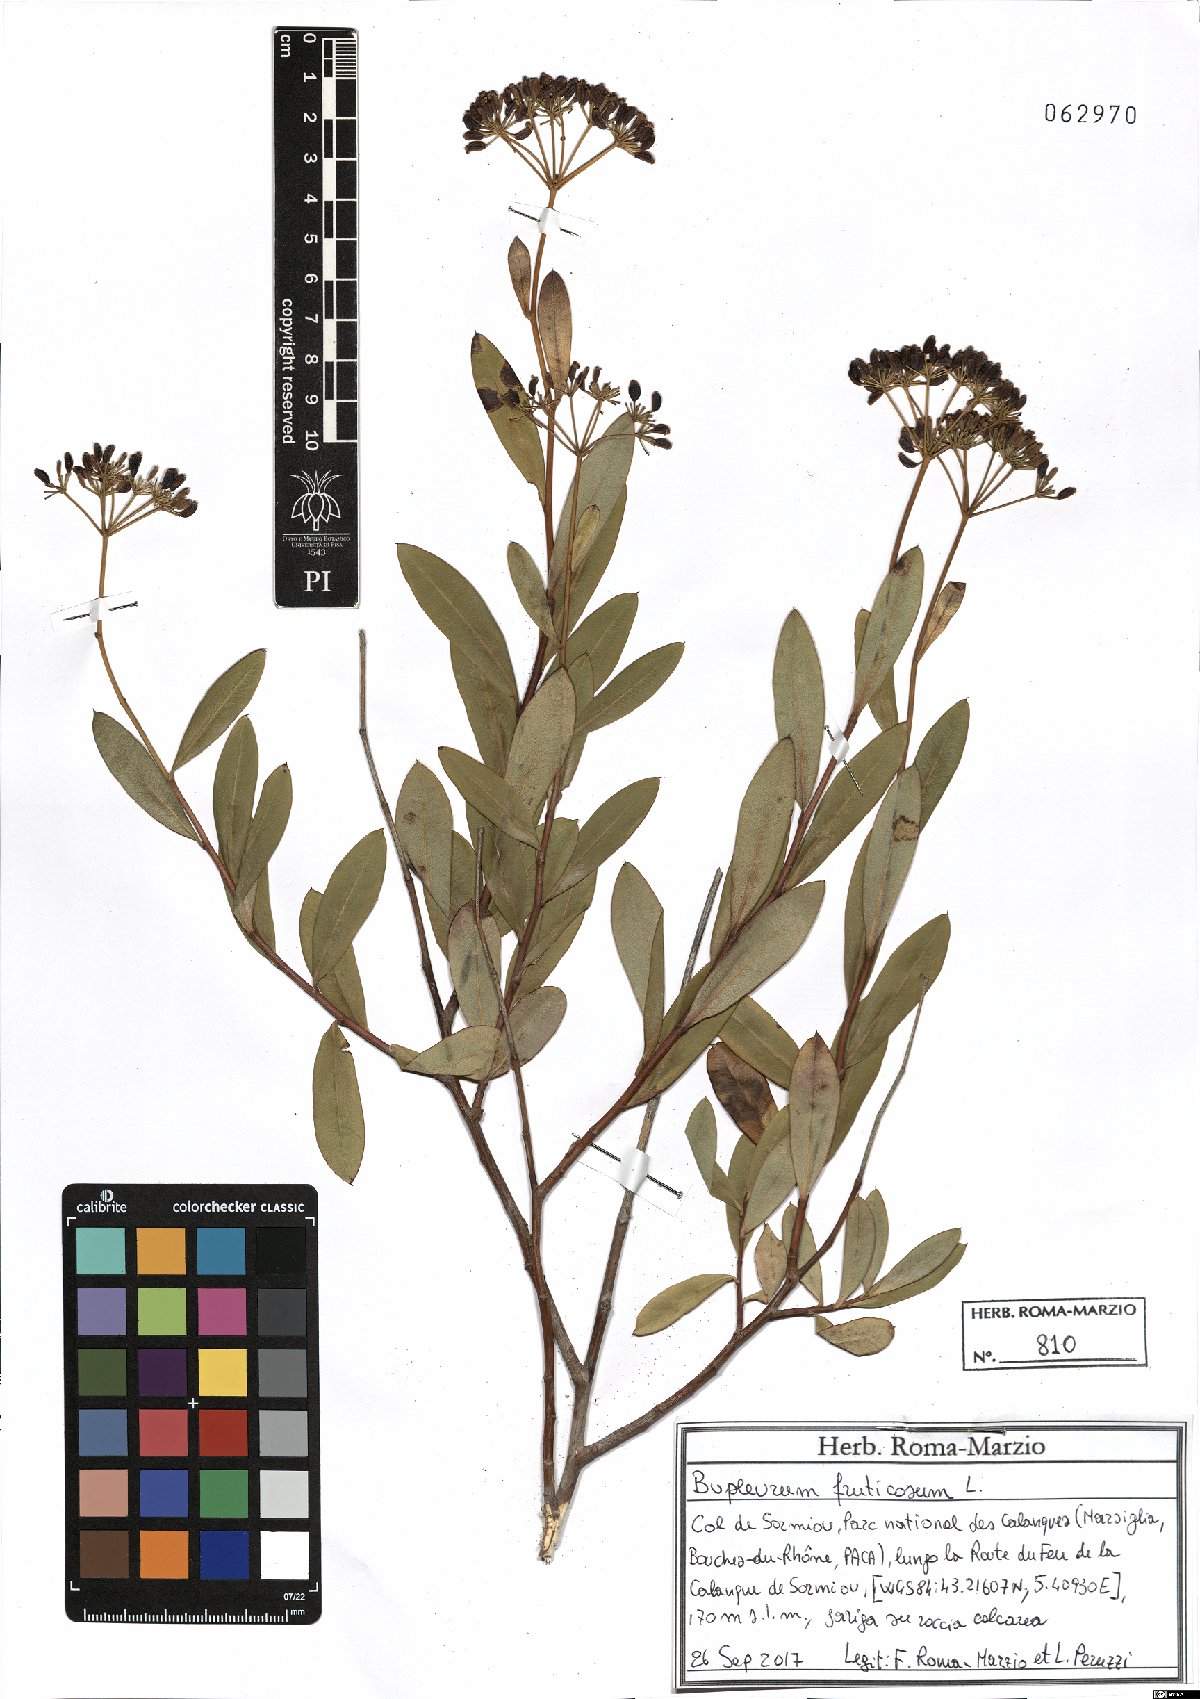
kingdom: Plantae
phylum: Tracheophyta
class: Magnoliopsida
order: Apiales
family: Apiaceae
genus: Bupleurum
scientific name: Bupleurum fruticosum
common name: Shrubby hare's-ear
